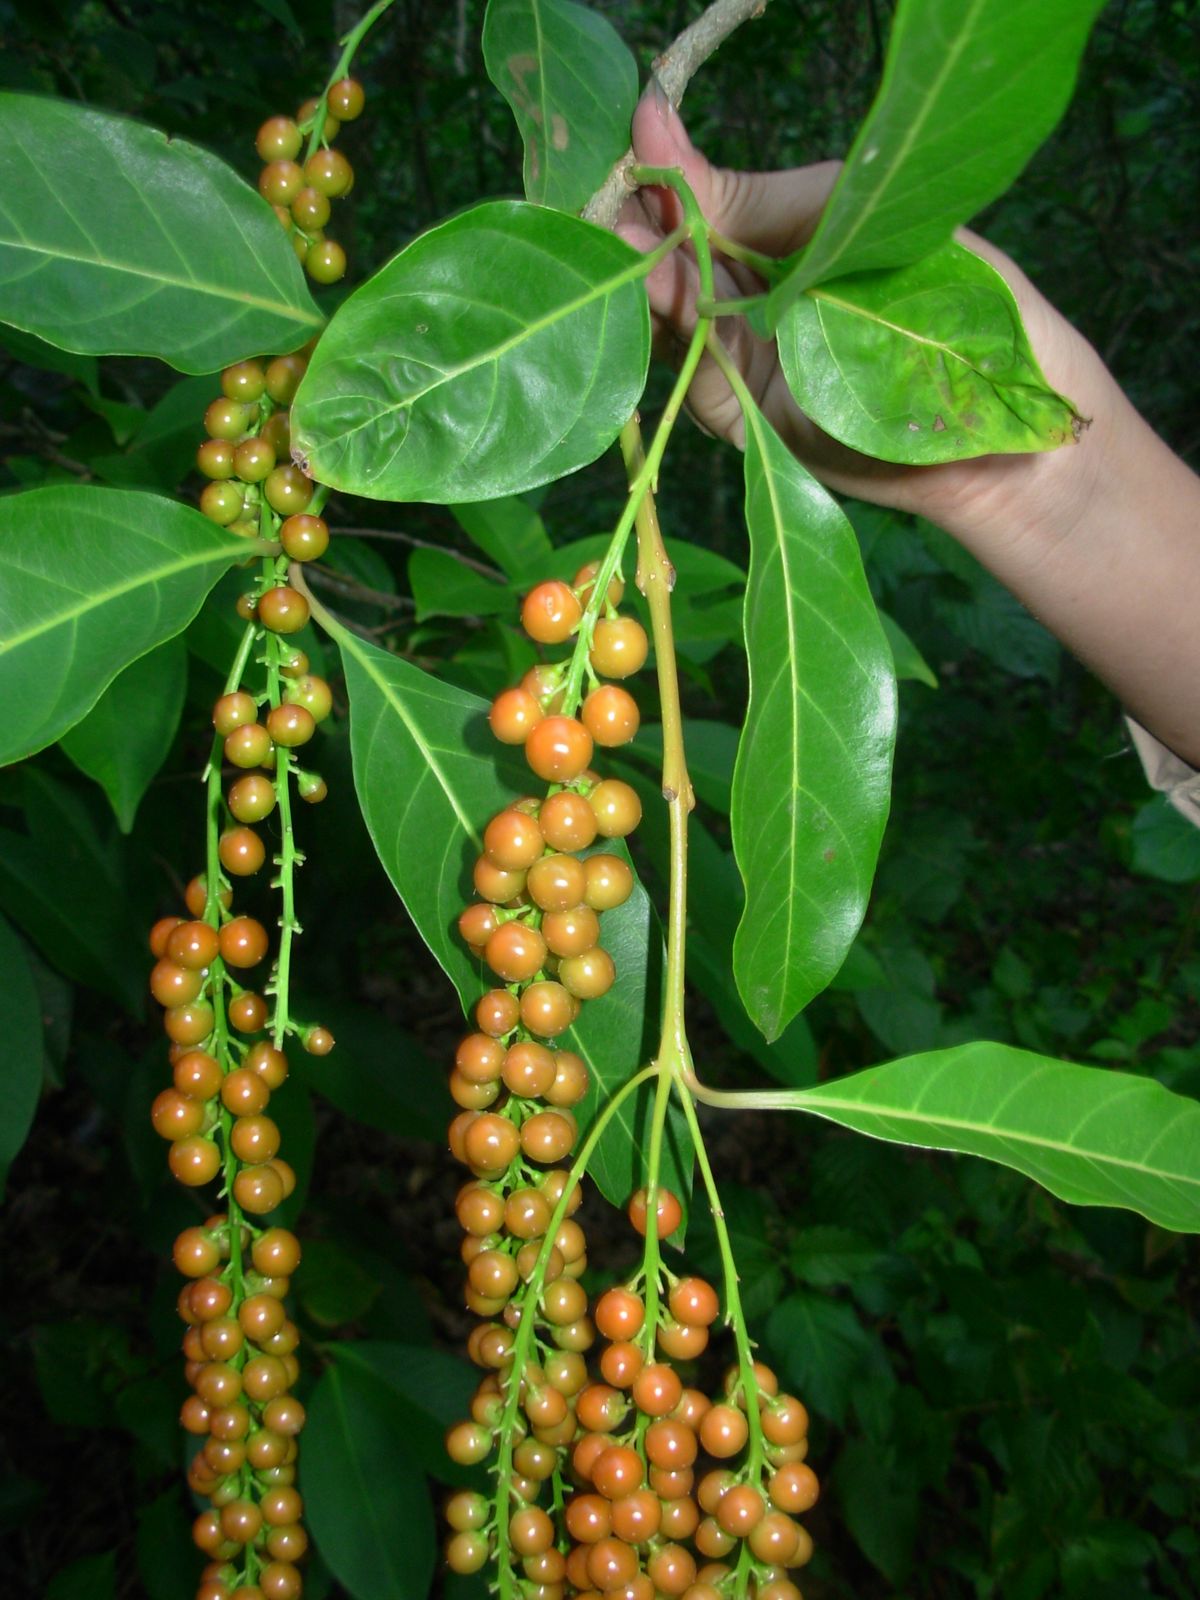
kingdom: Plantae
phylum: Tracheophyta
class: Magnoliopsida
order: Lamiales
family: Verbenaceae
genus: Citharexylum
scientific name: Citharexylum donnell-smithii
